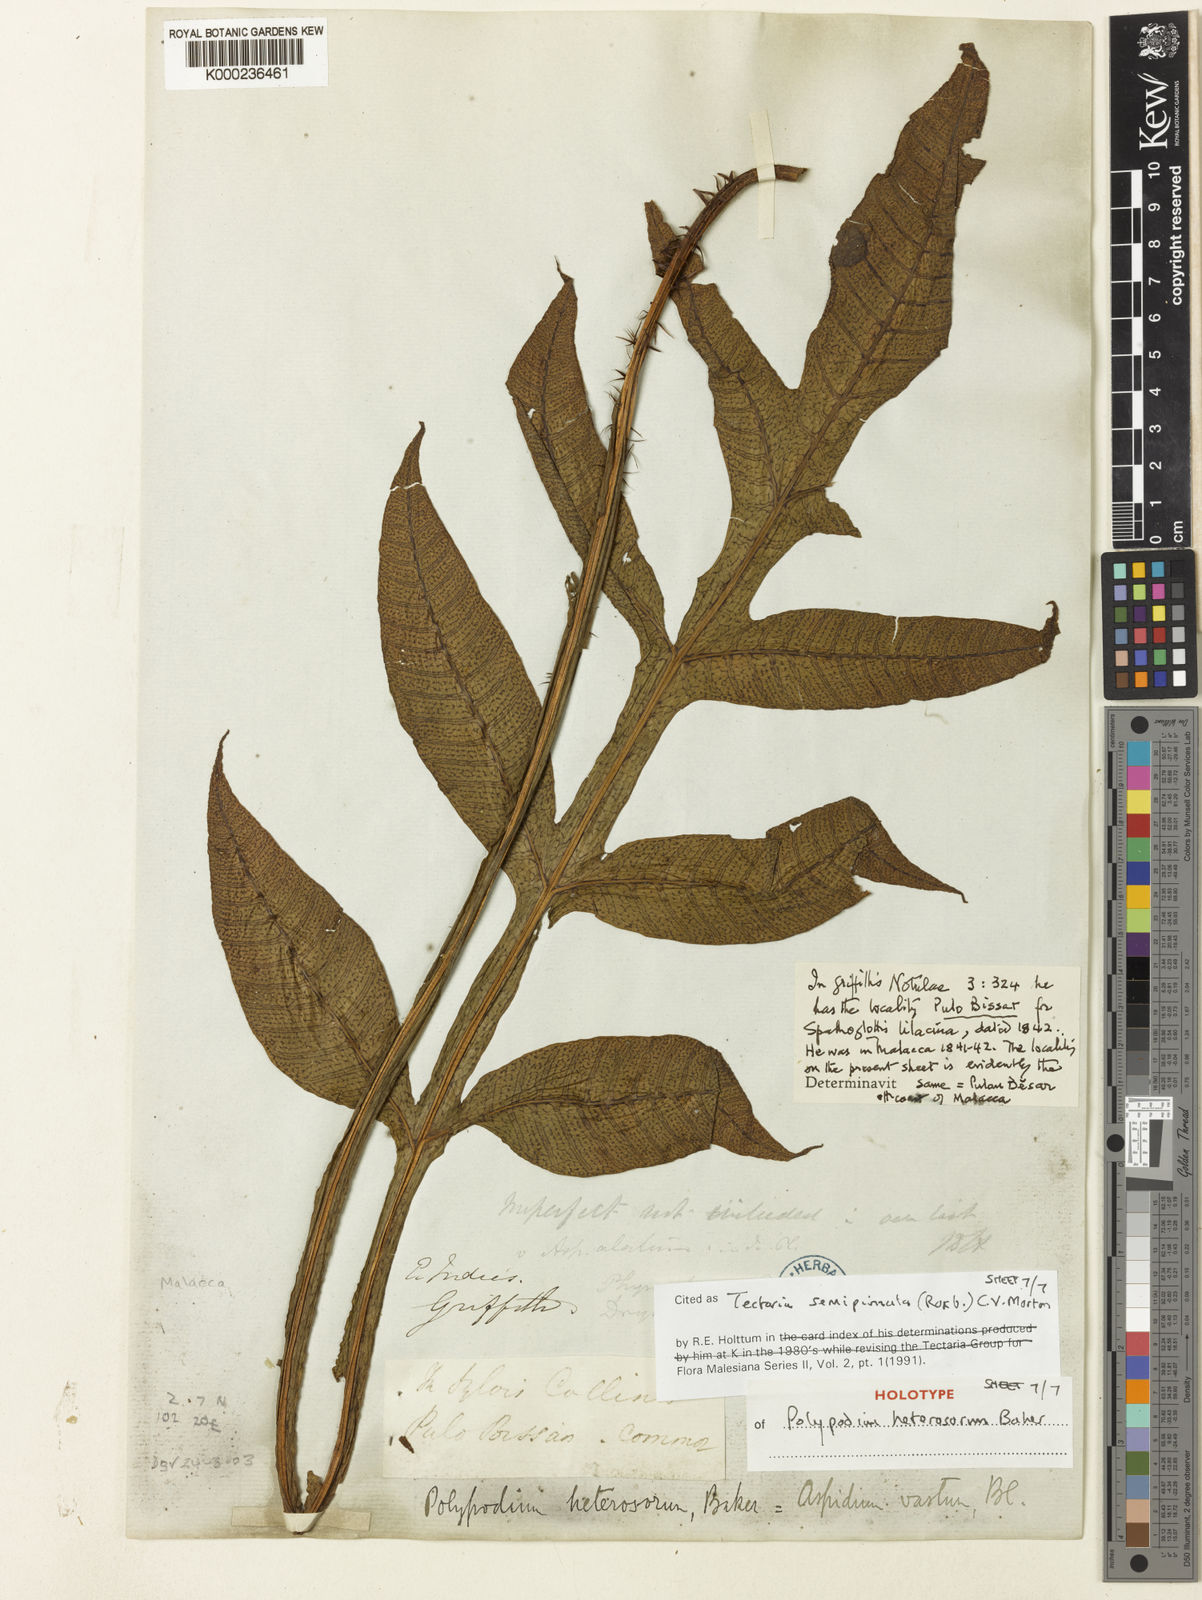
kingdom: Plantae
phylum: Tracheophyta
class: Polypodiopsida
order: Polypodiales
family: Tectariaceae
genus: Tectaria
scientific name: Tectaria semipinnata
